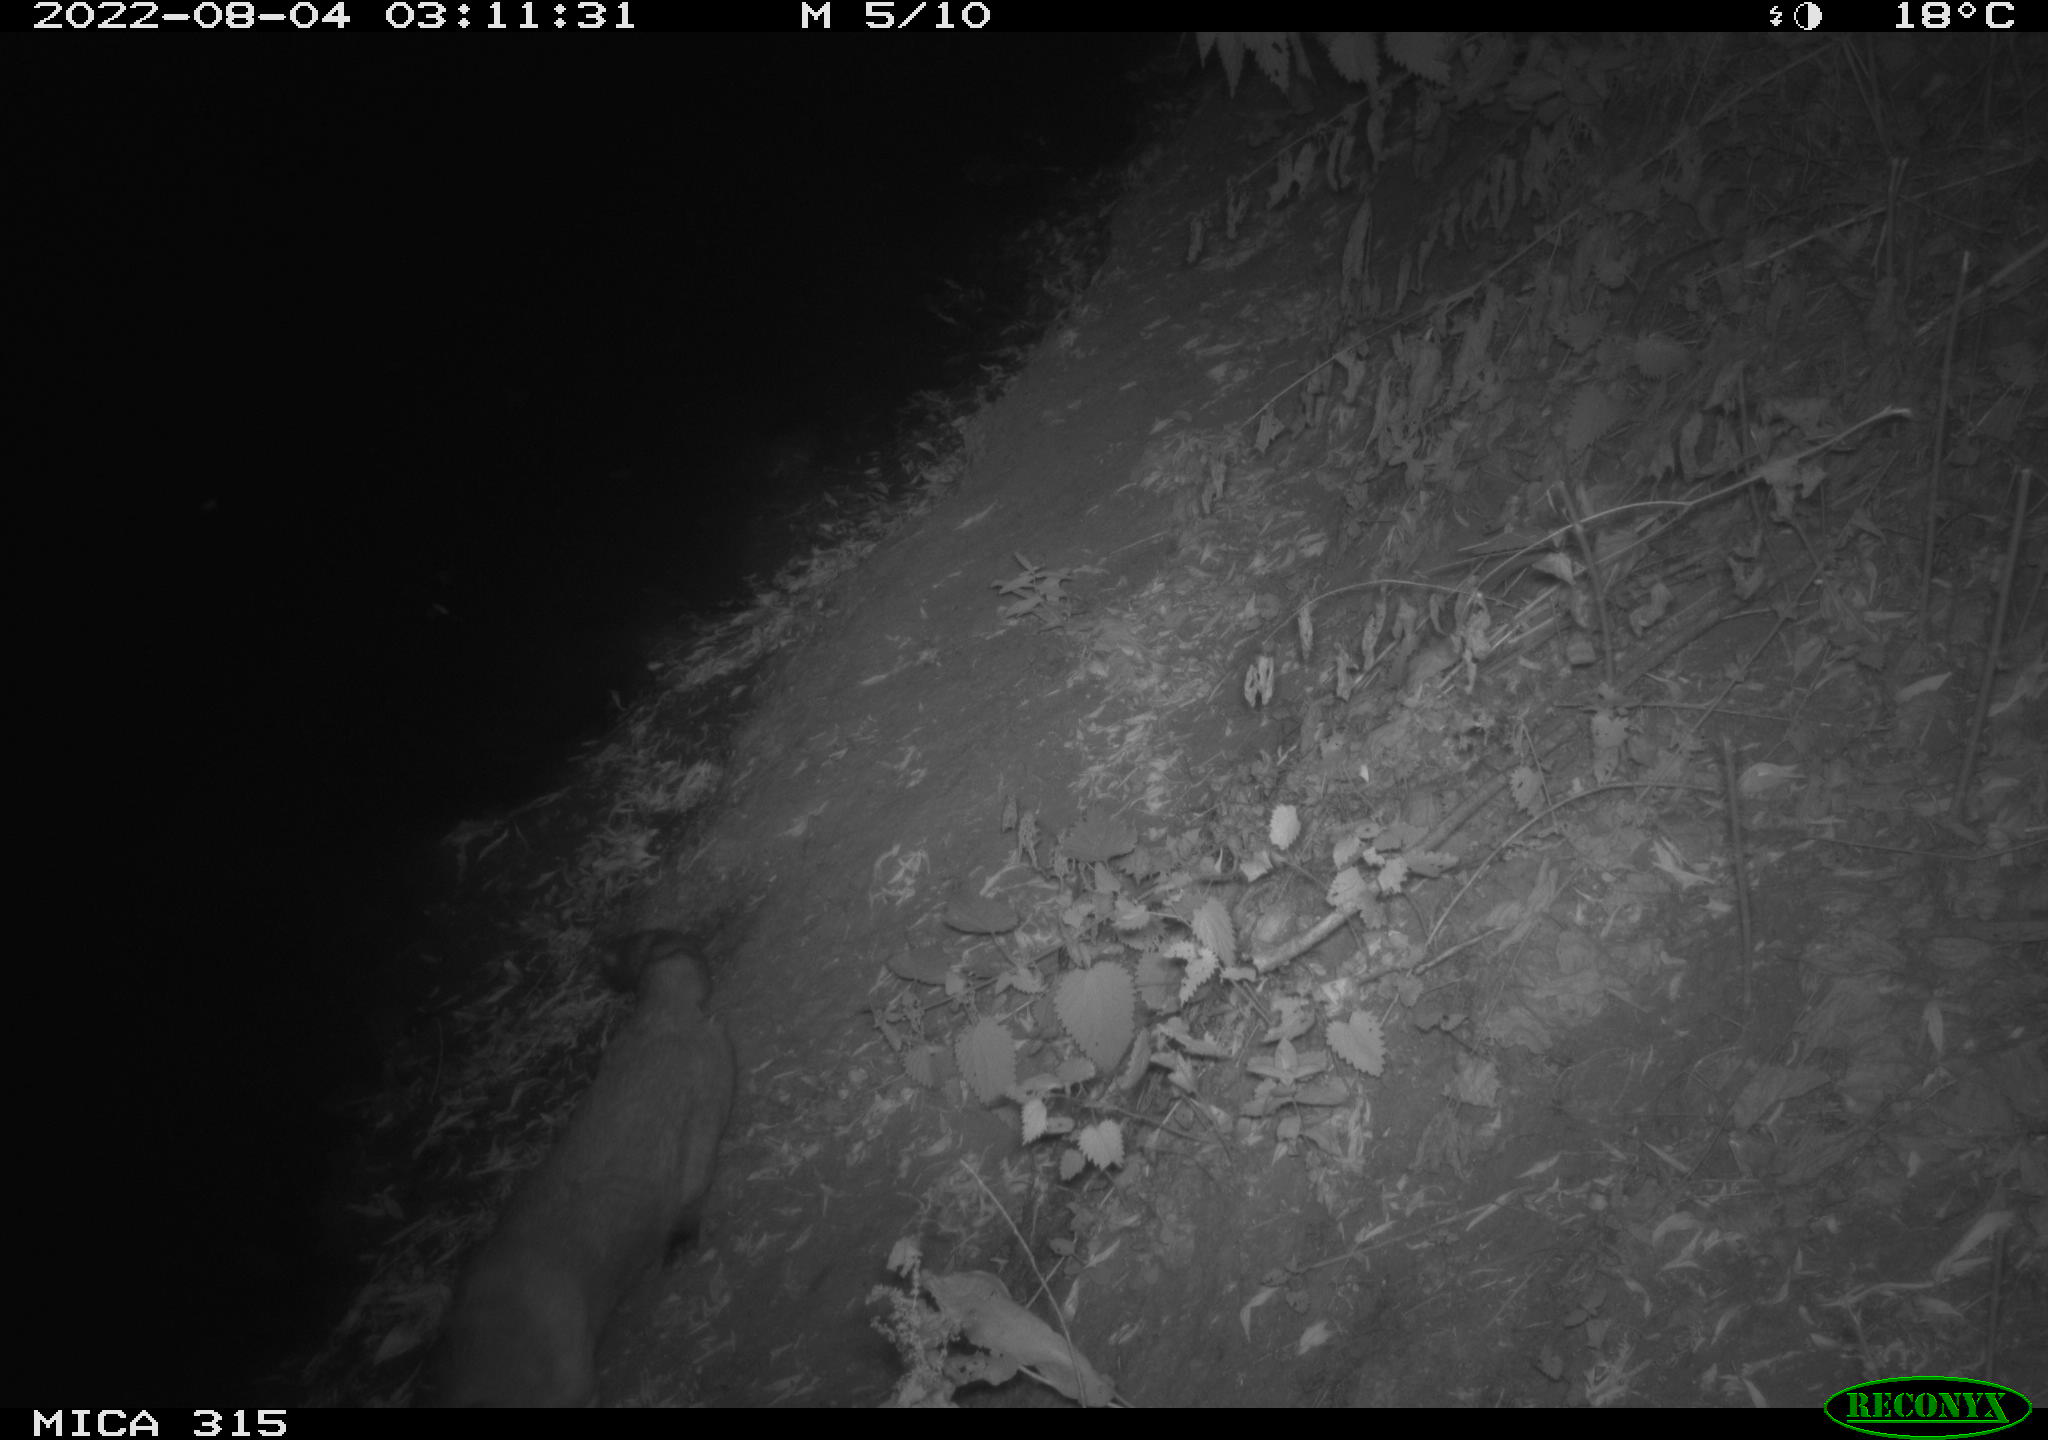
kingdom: Animalia
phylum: Chordata
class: Mammalia
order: Carnivora
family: Canidae
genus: Vulpes
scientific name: Vulpes vulpes
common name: Red fox
